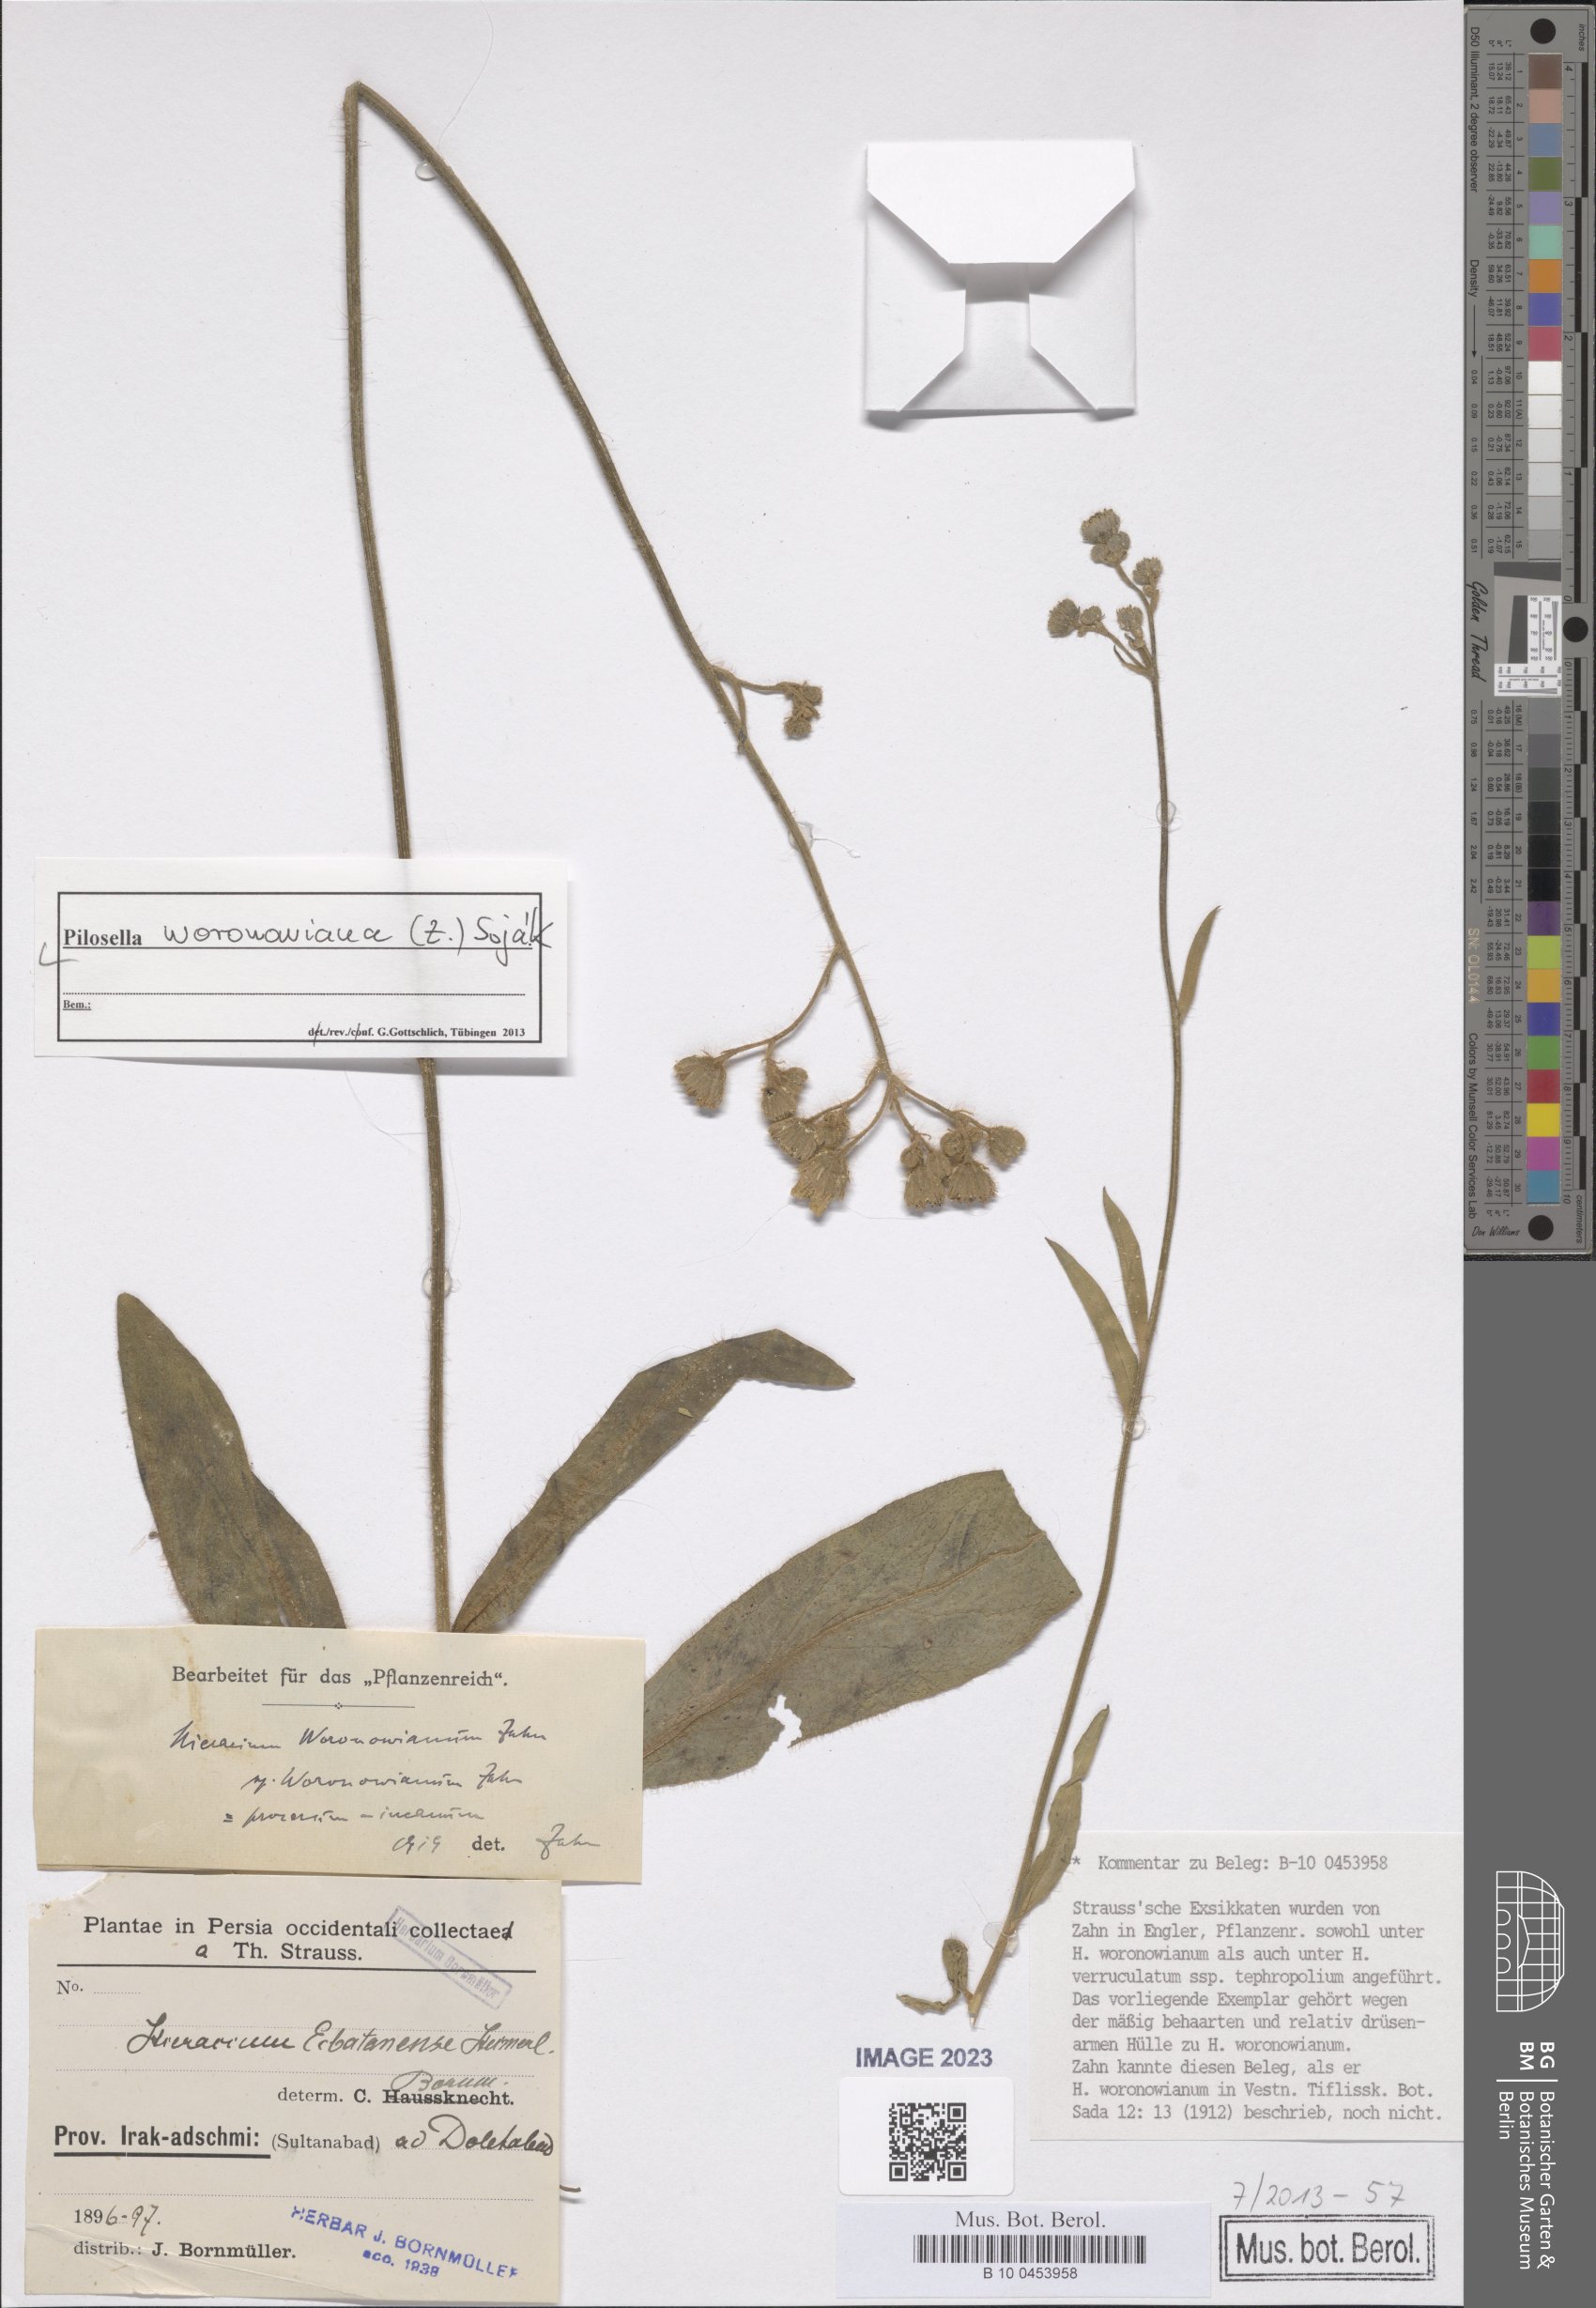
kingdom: Plantae
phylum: Tracheophyta
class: Magnoliopsida
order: Asterales
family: Asteraceae
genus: Pilosella
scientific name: Pilosella woronowiana
